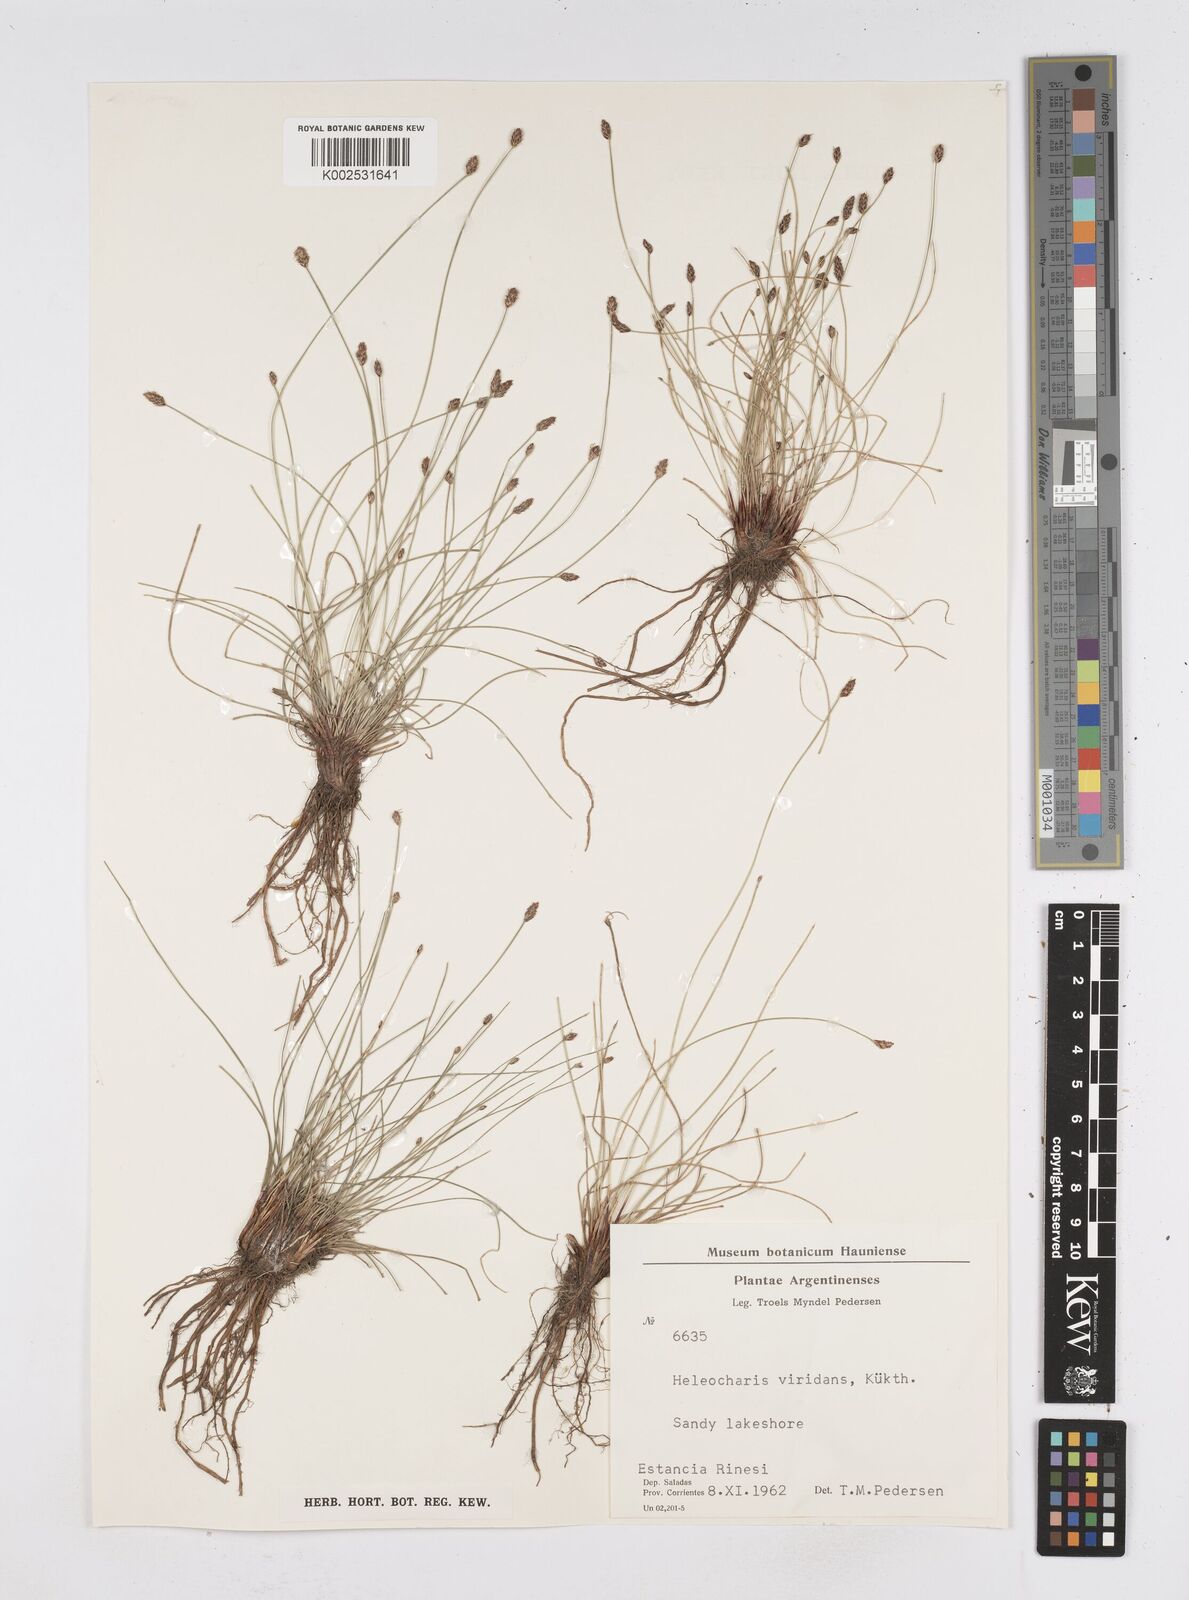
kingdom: Plantae
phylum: Tracheophyta
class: Liliopsida
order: Poales
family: Cyperaceae
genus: Eleocharis
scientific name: Eleocharis viridans
